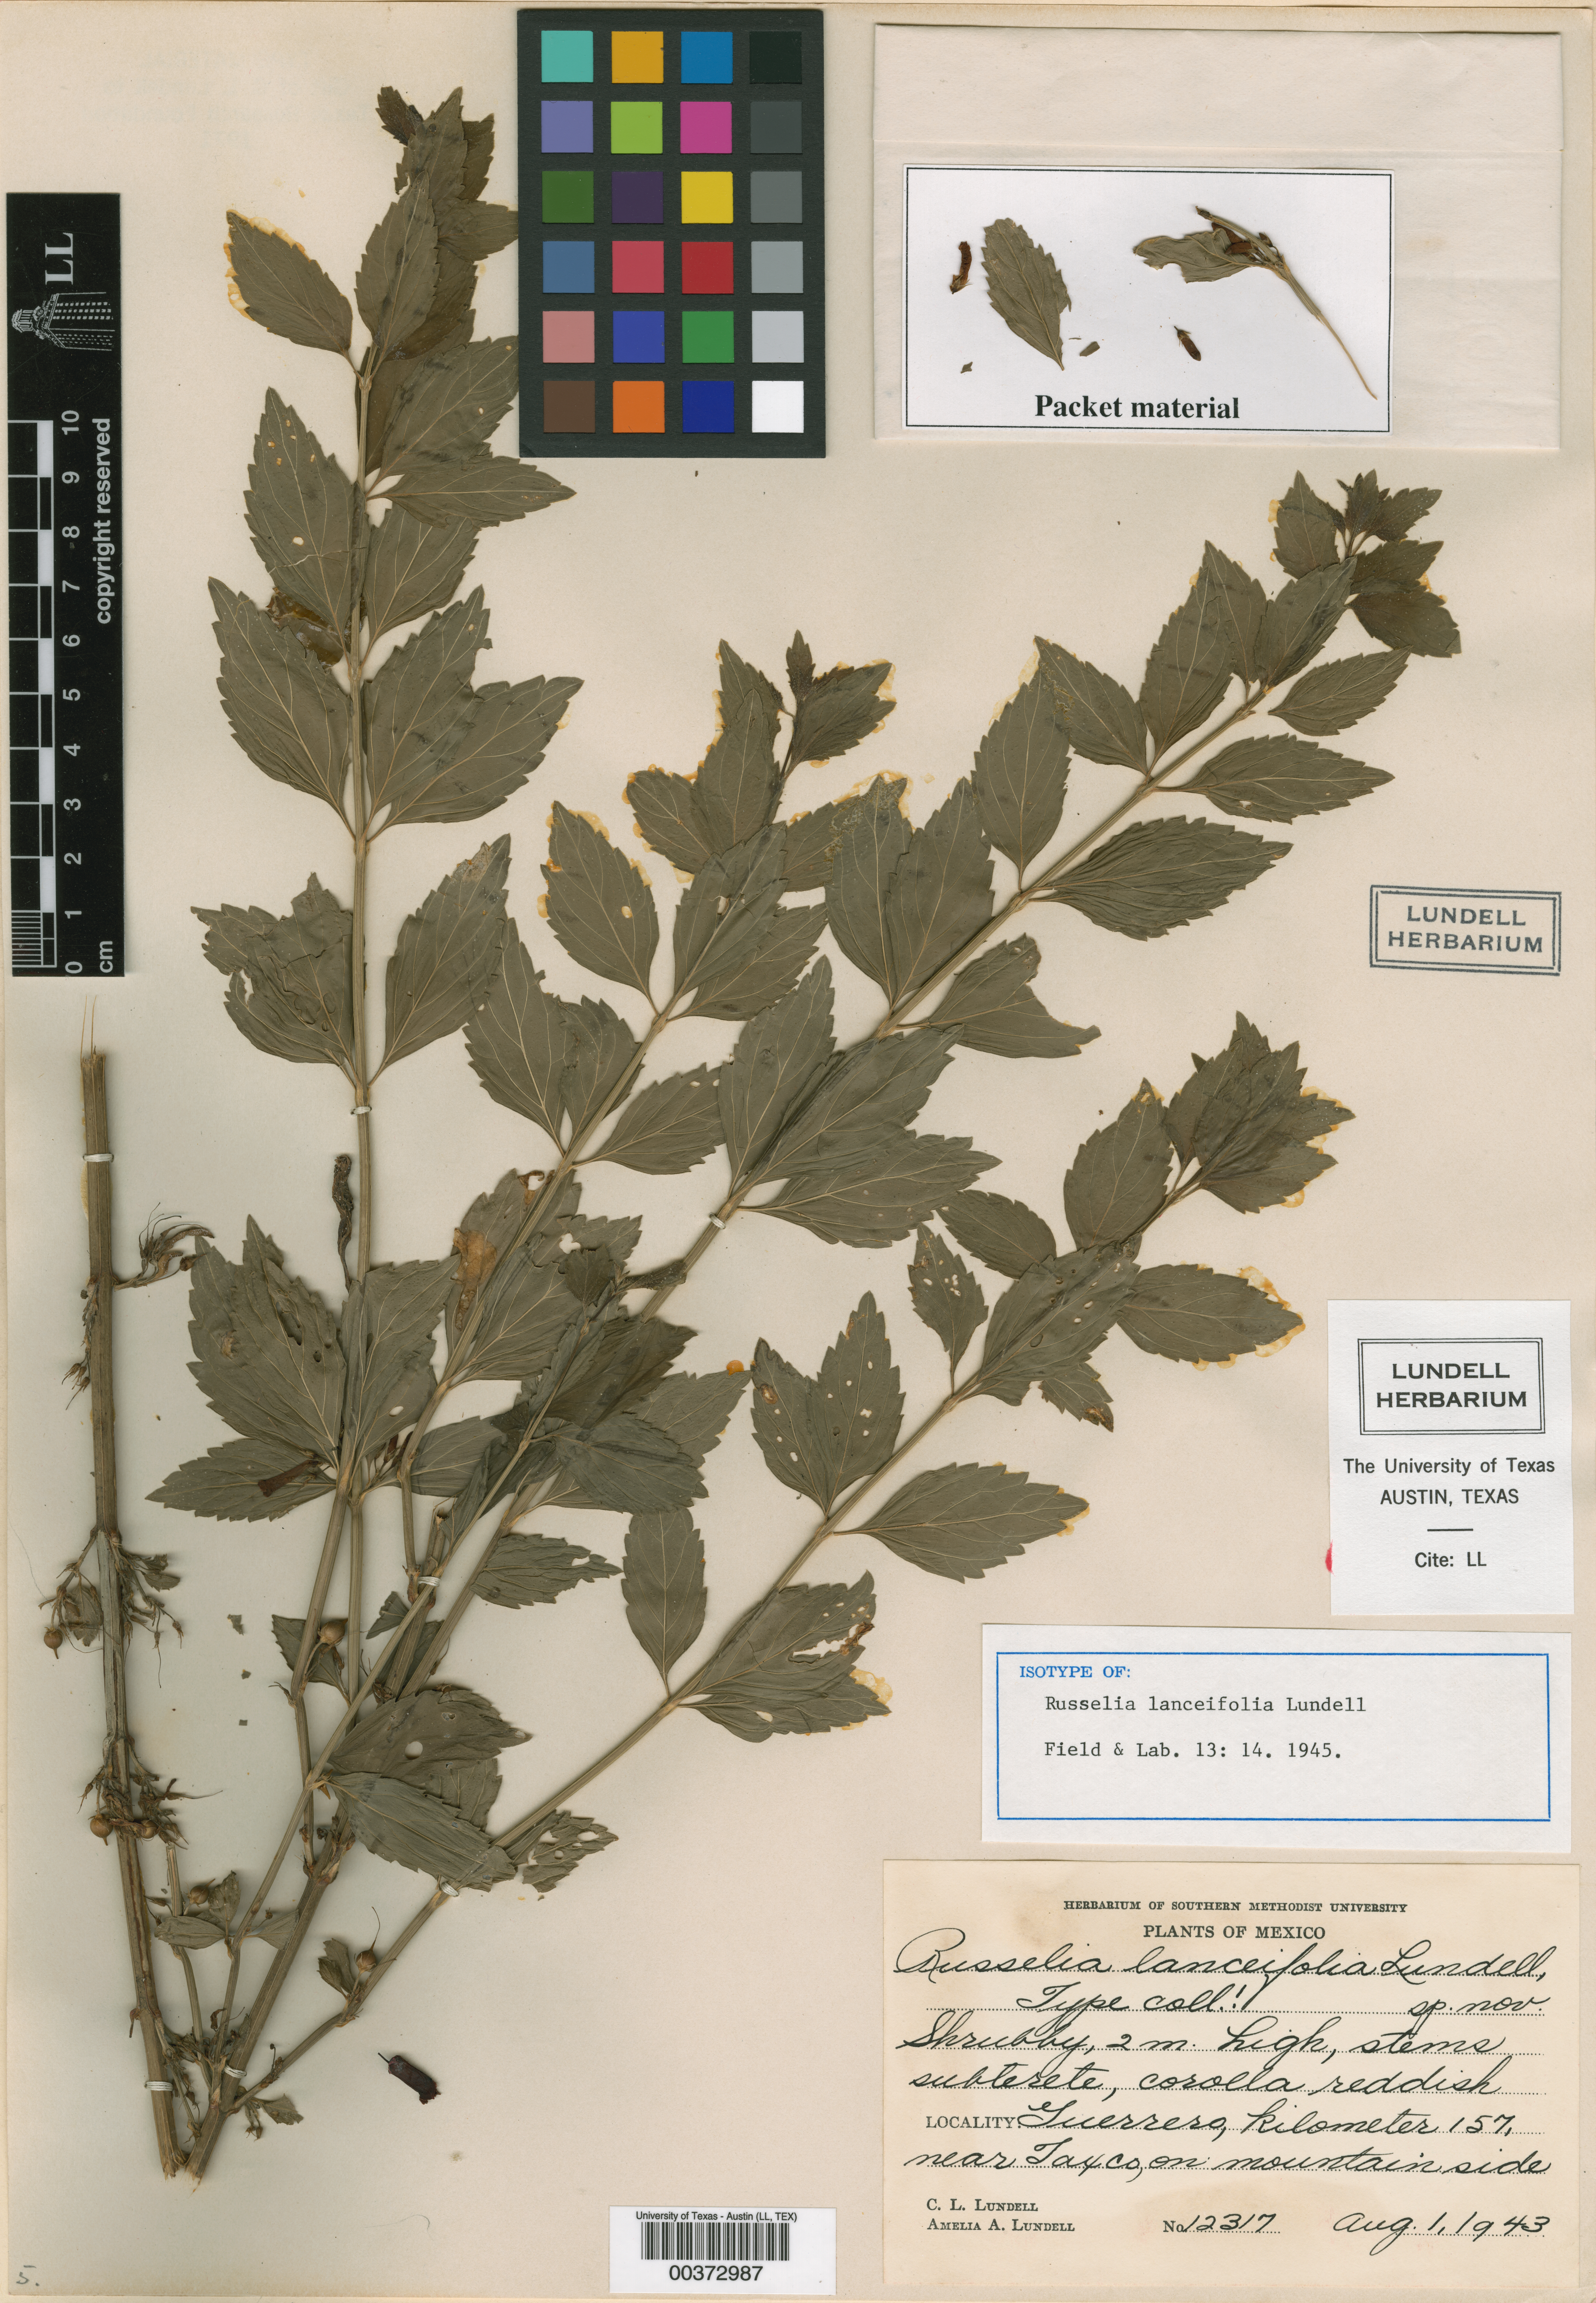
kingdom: Plantae
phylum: Tracheophyta
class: Magnoliopsida
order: Lamiales
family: Plantaginaceae
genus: Russelia
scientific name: Russelia coccinea
